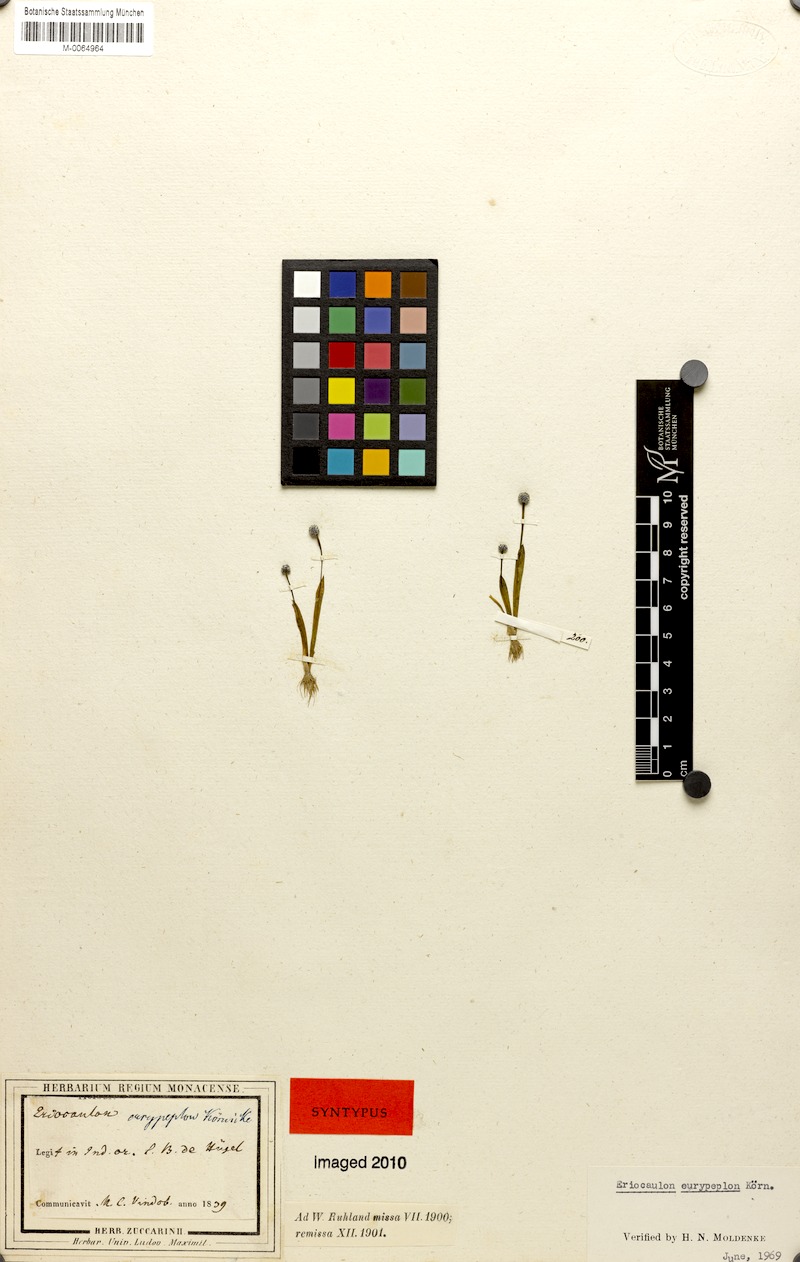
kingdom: Plantae
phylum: Tracheophyta
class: Liliopsida
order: Poales
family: Eriocaulaceae
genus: Eriocaulon
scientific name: Eriocaulon eurypeplon
